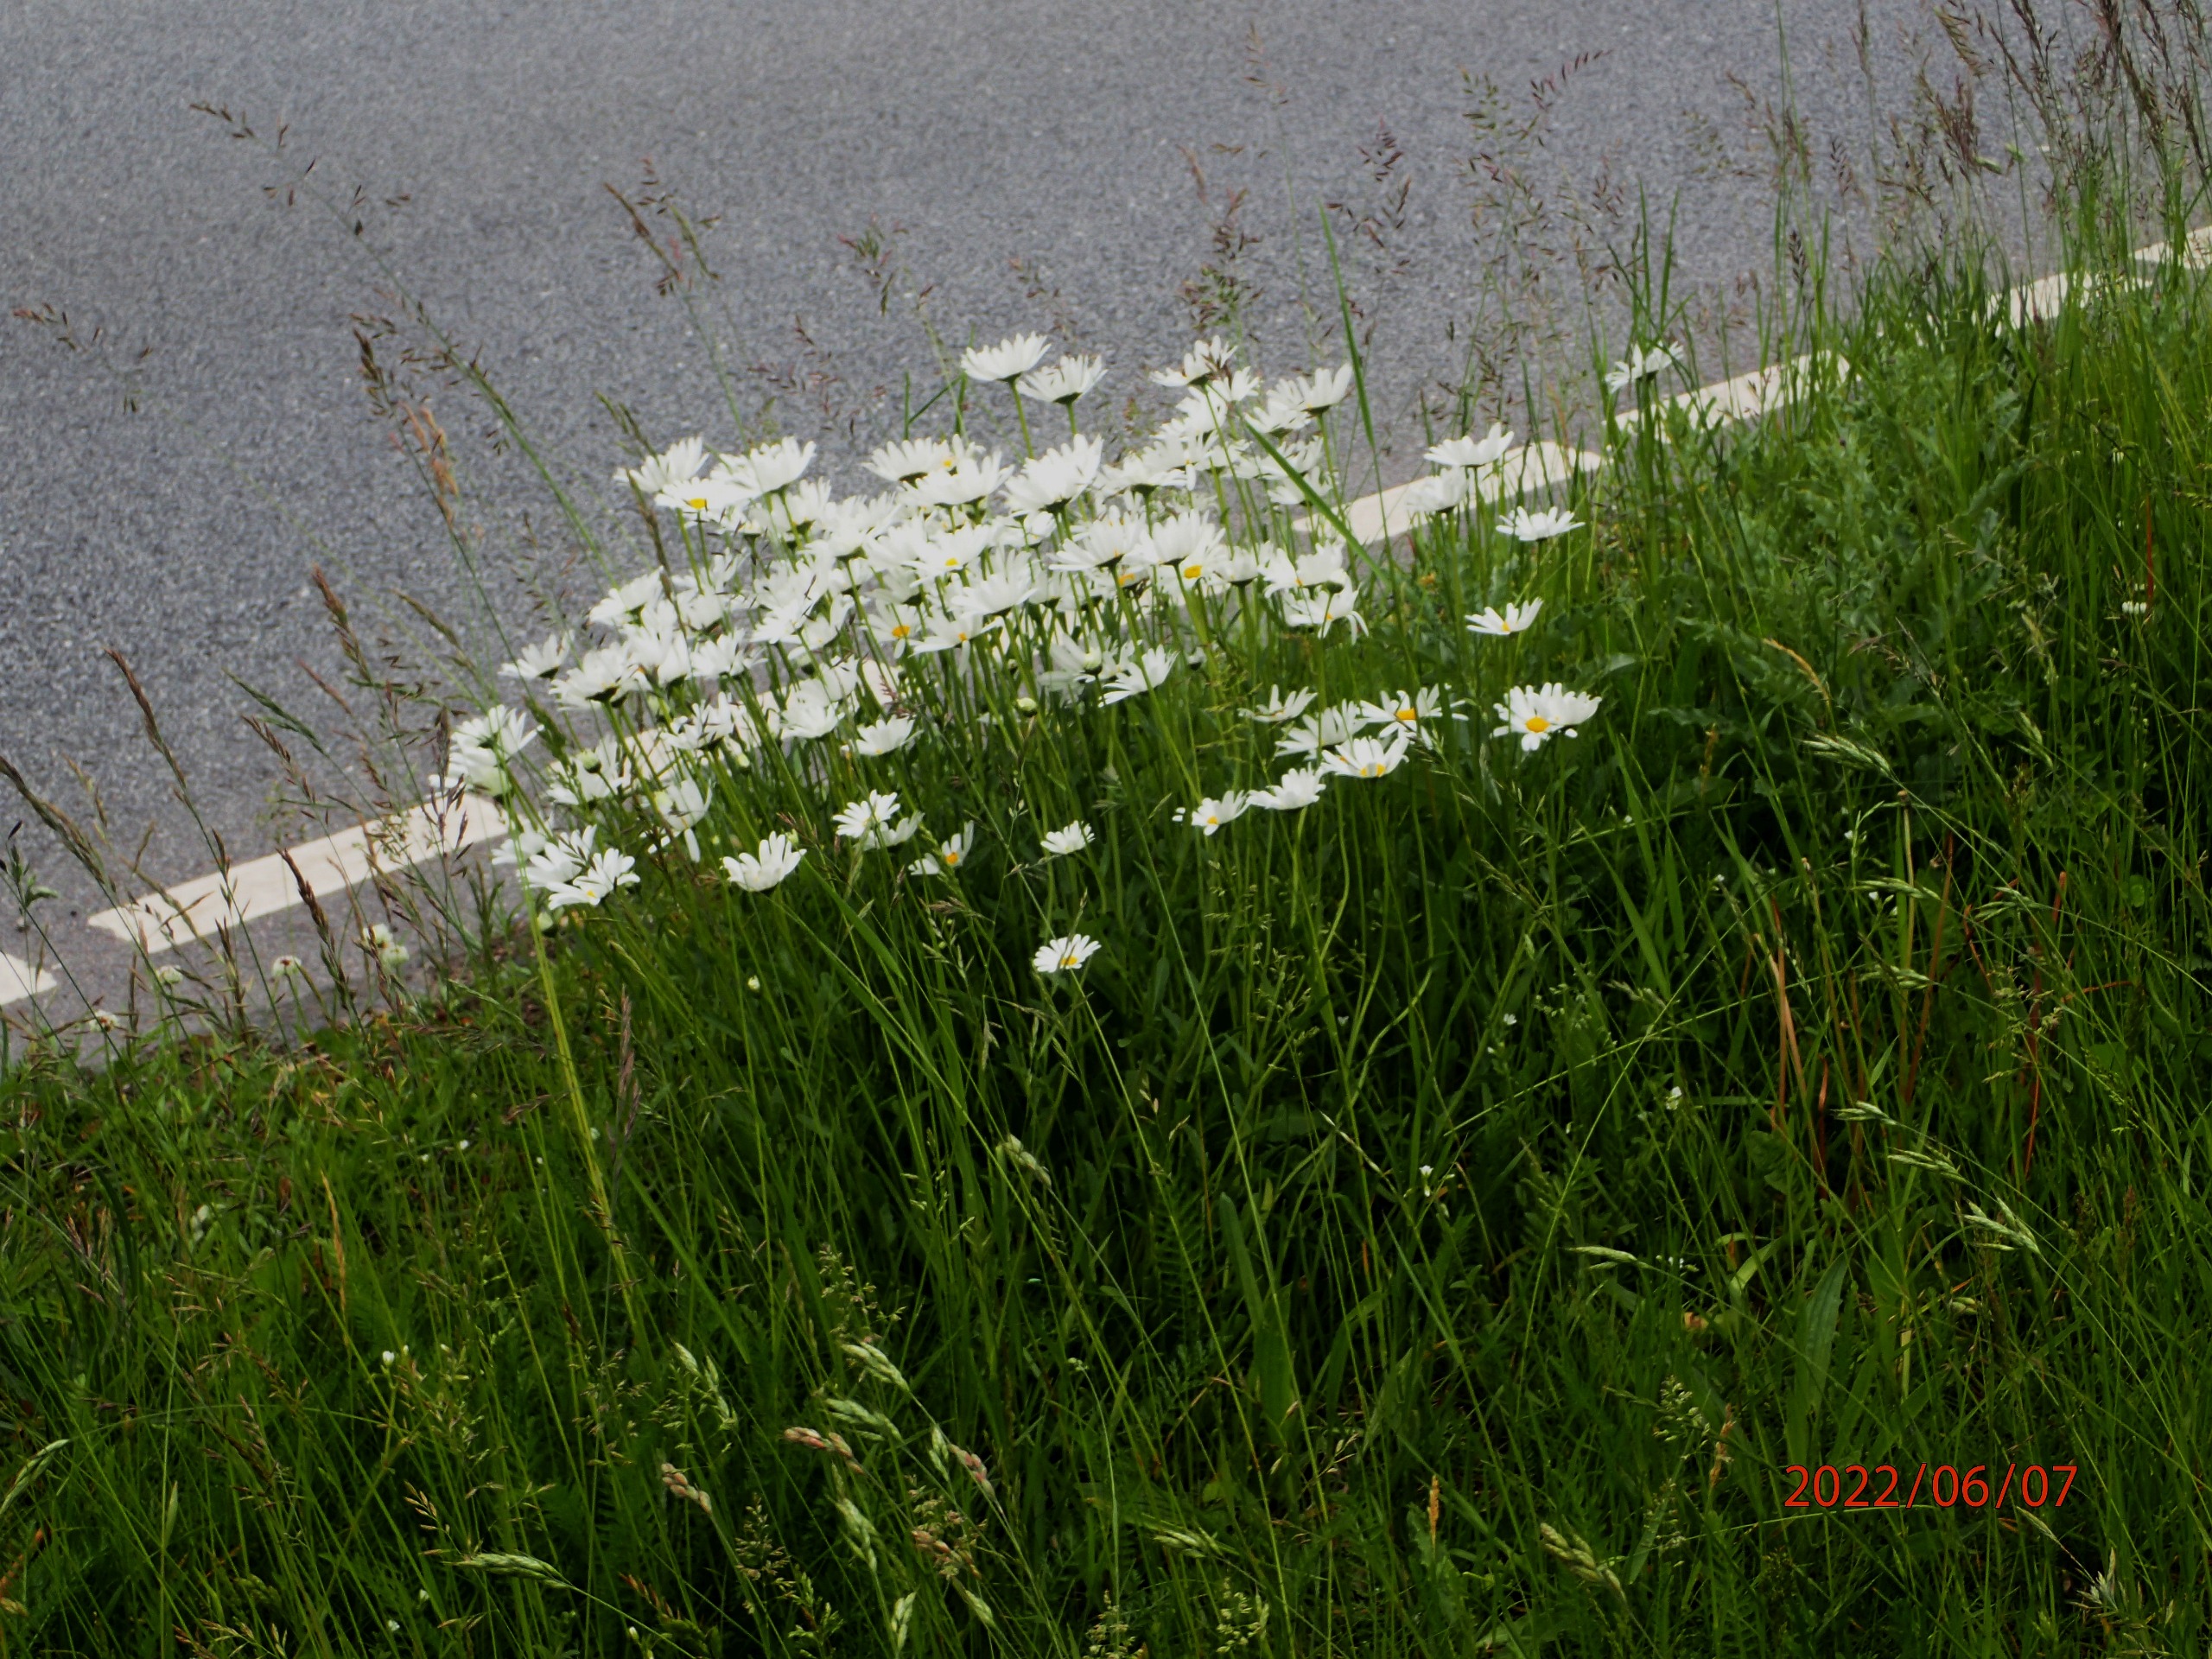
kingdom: Plantae
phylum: Tracheophyta
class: Magnoliopsida
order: Asterales
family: Asteraceae
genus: Leucanthemum
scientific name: Leucanthemum vulgare
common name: Hvid okseøje
